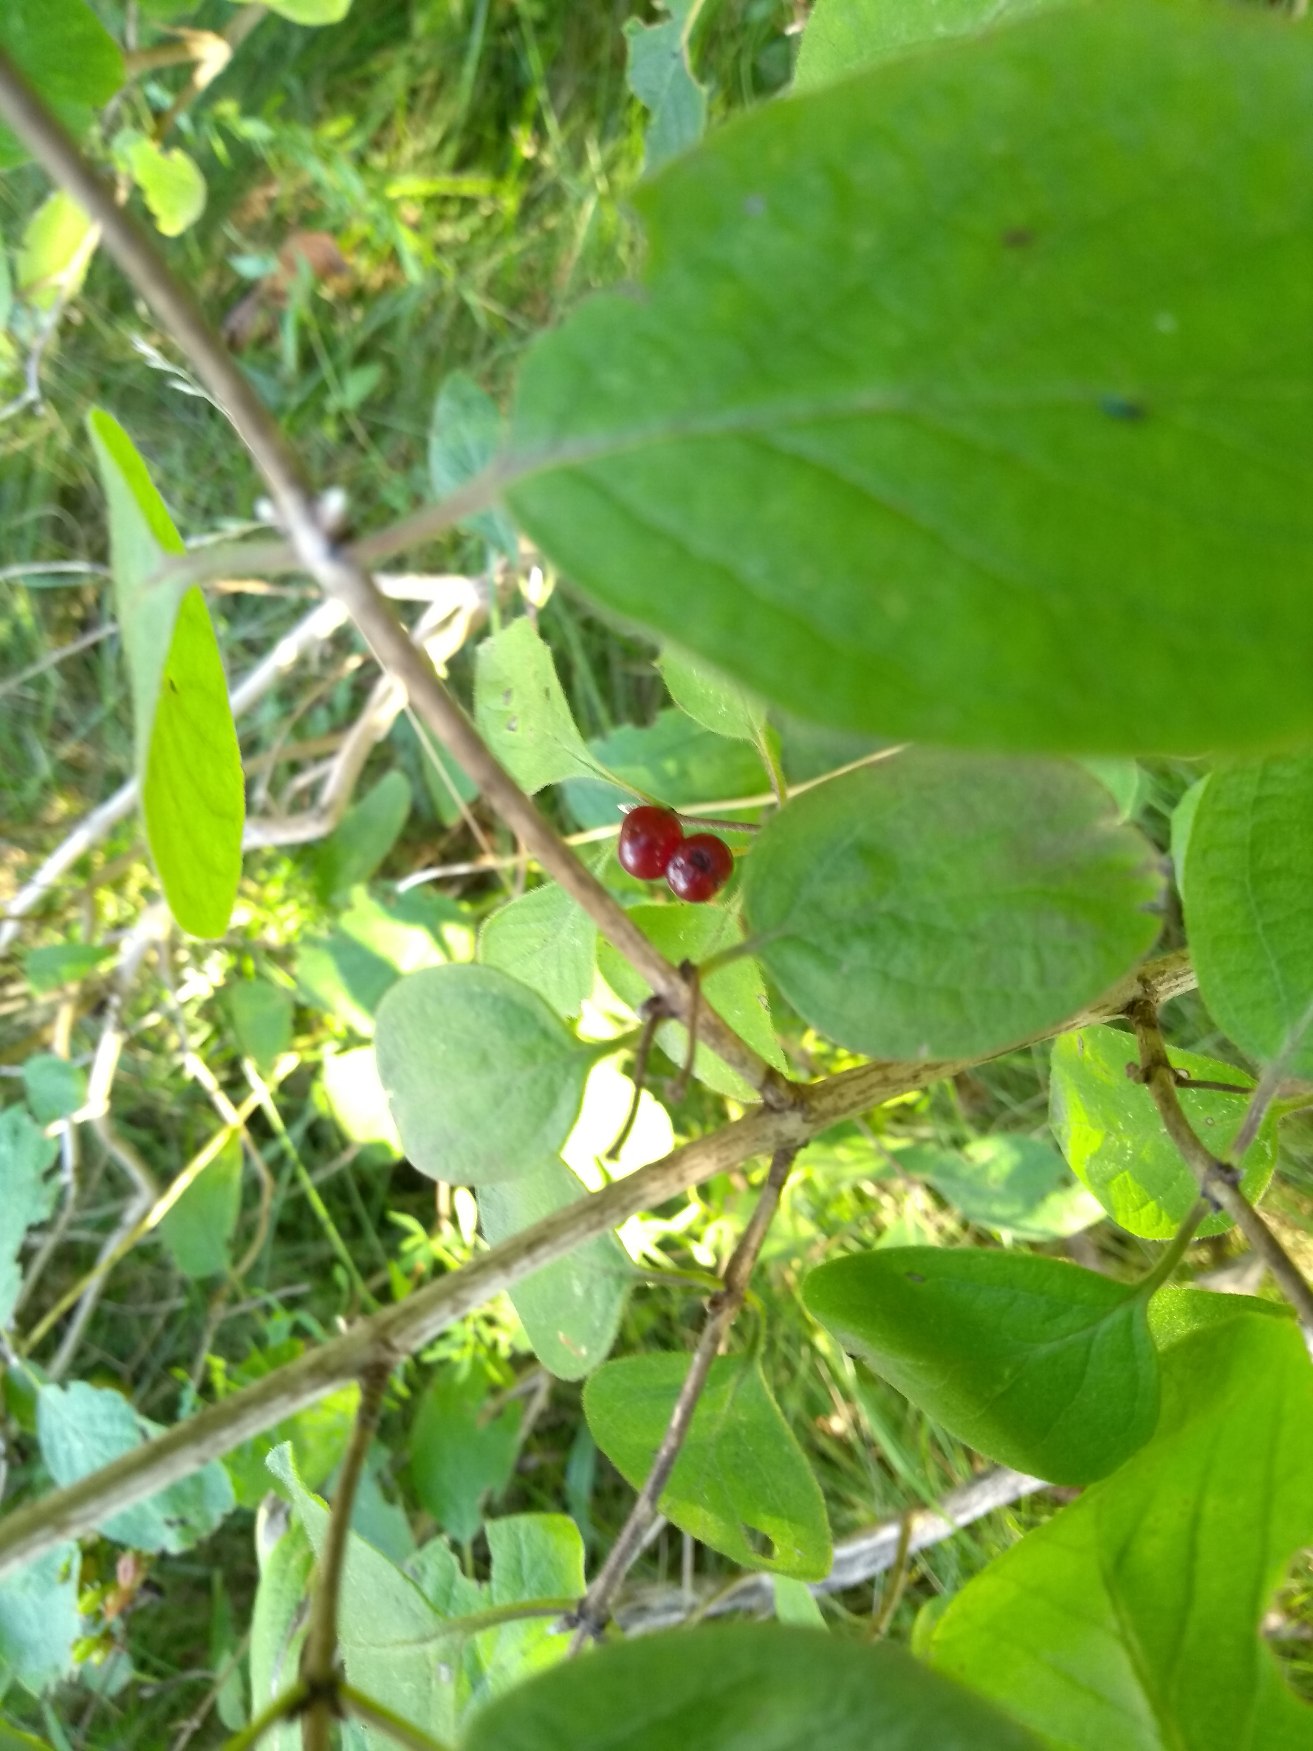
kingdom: Plantae
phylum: Tracheophyta
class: Magnoliopsida
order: Dipsacales
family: Caprifoliaceae
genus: Lonicera
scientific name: Lonicera xylosteum
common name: Dunet gedeblad
